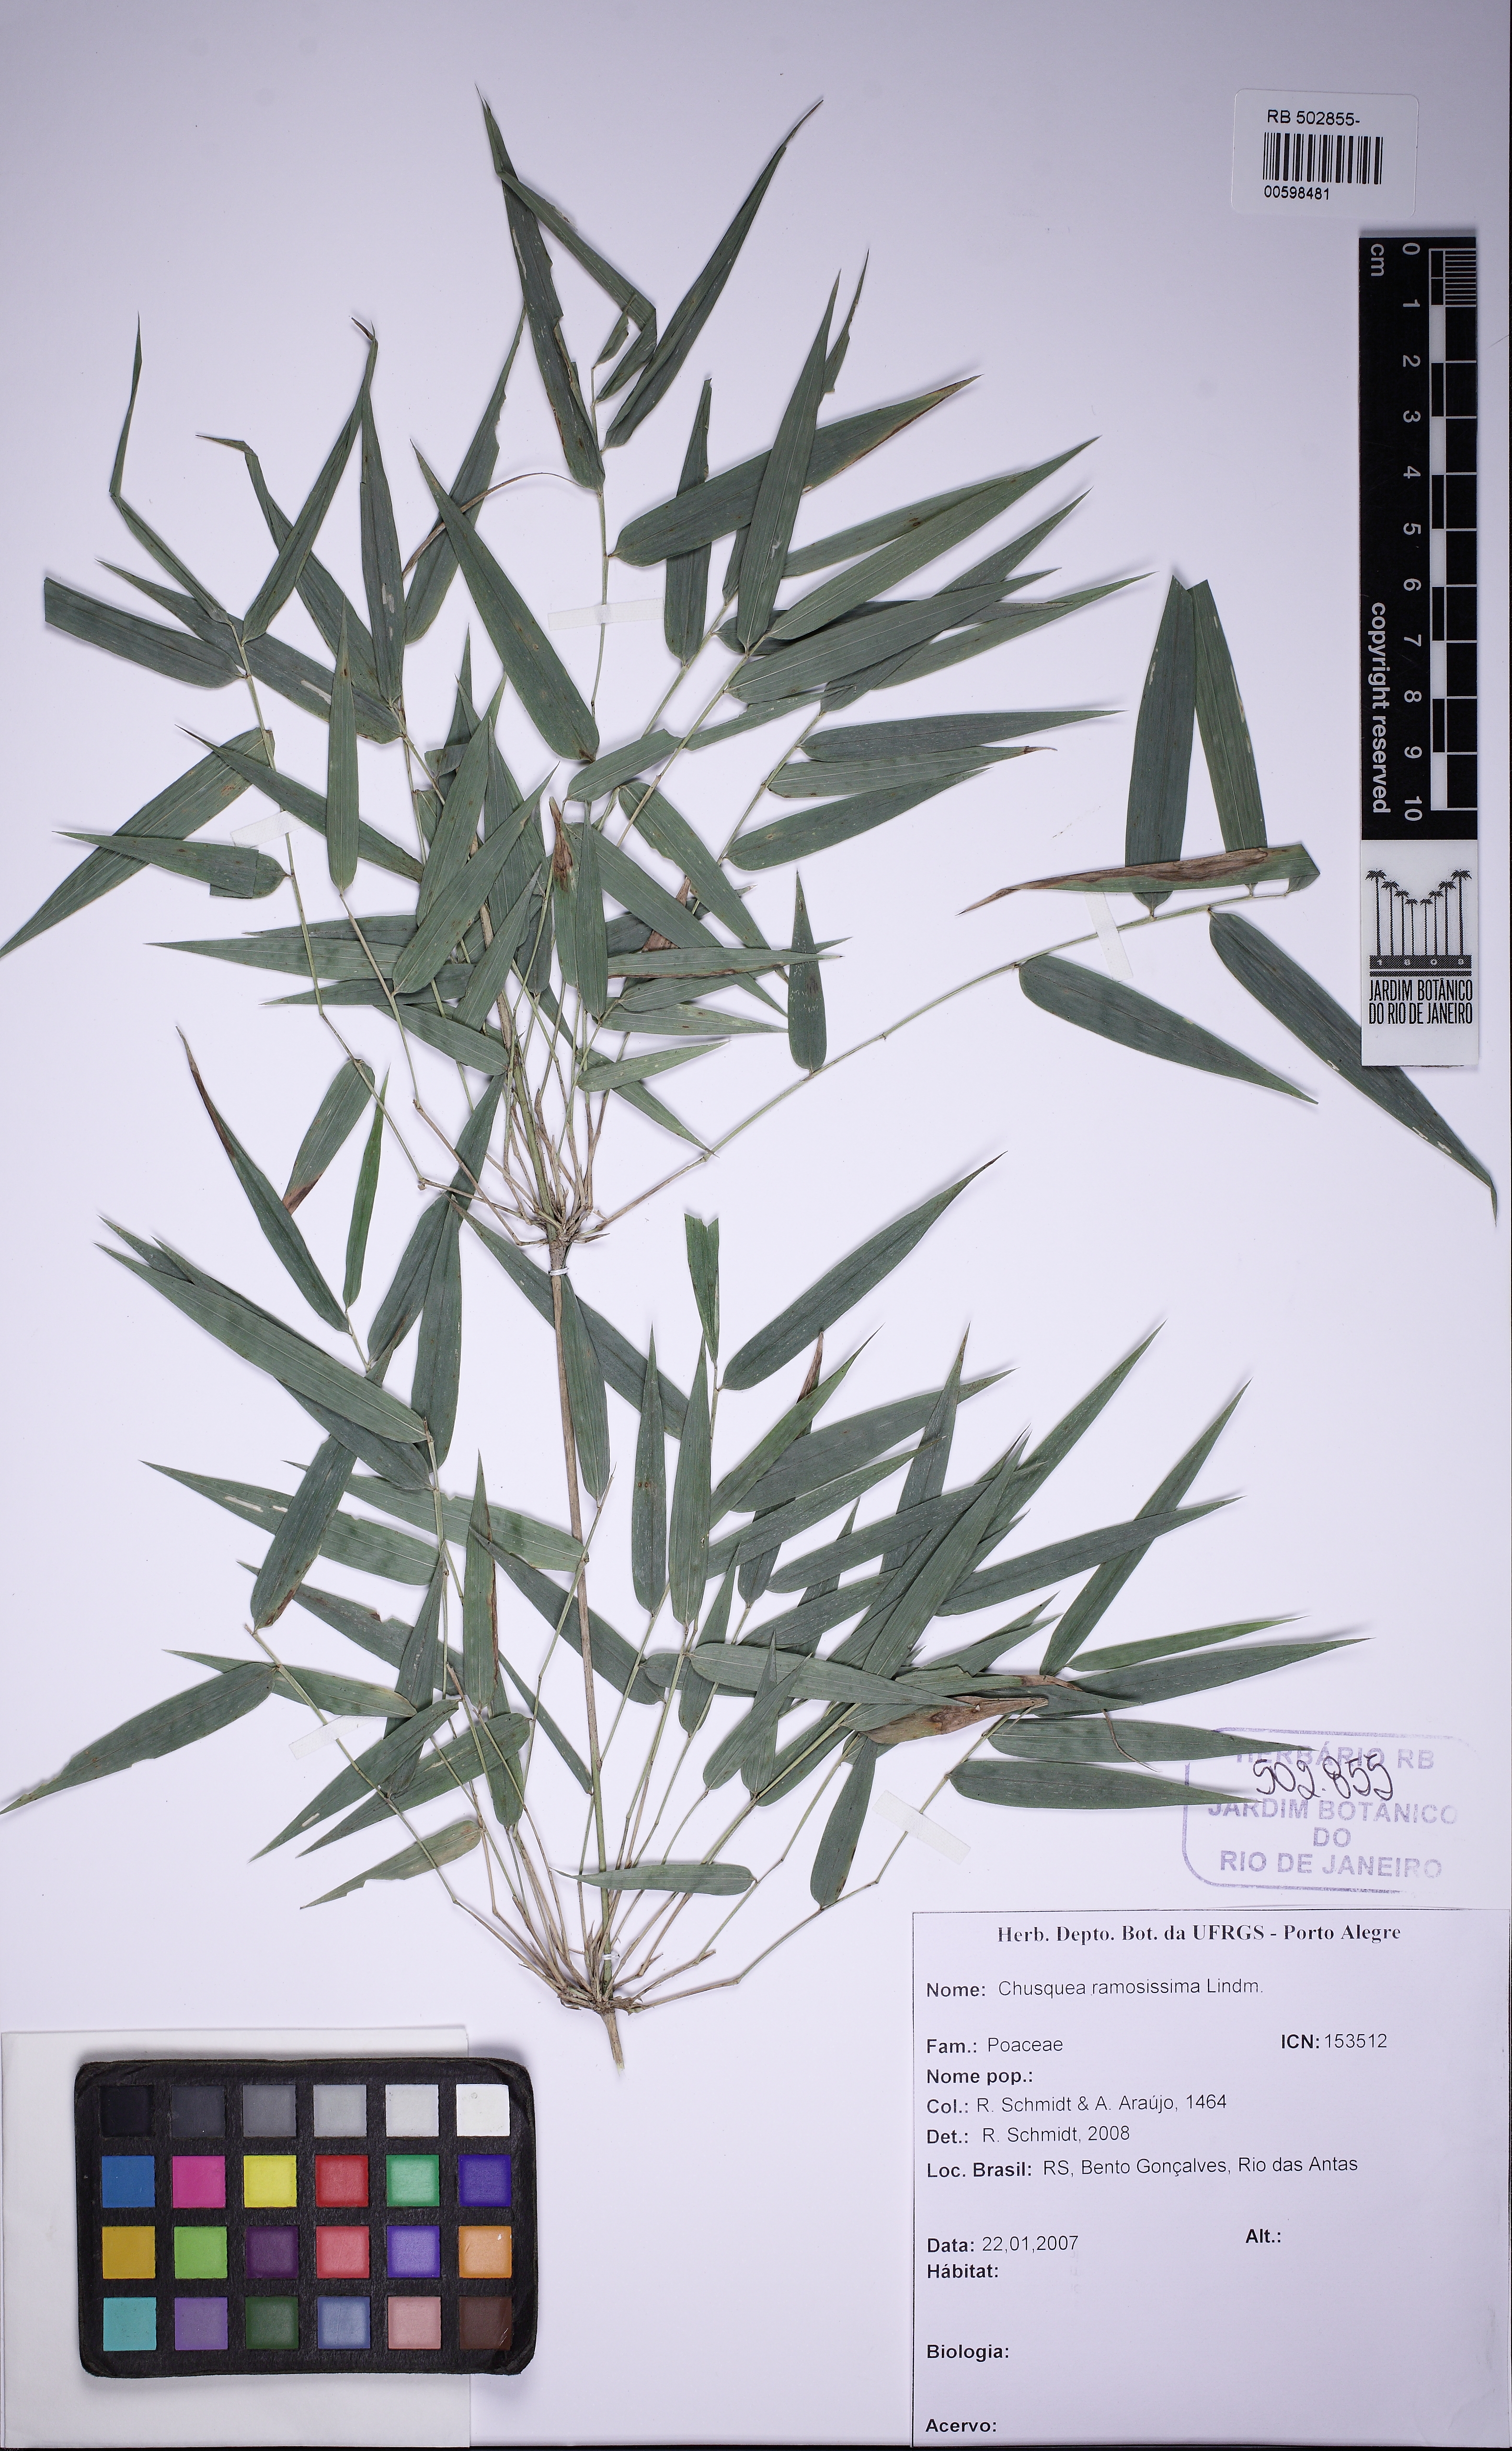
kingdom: Plantae
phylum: Tracheophyta
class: Liliopsida
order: Poales
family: Poaceae
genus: Chusquea
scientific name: Chusquea ramosissima
